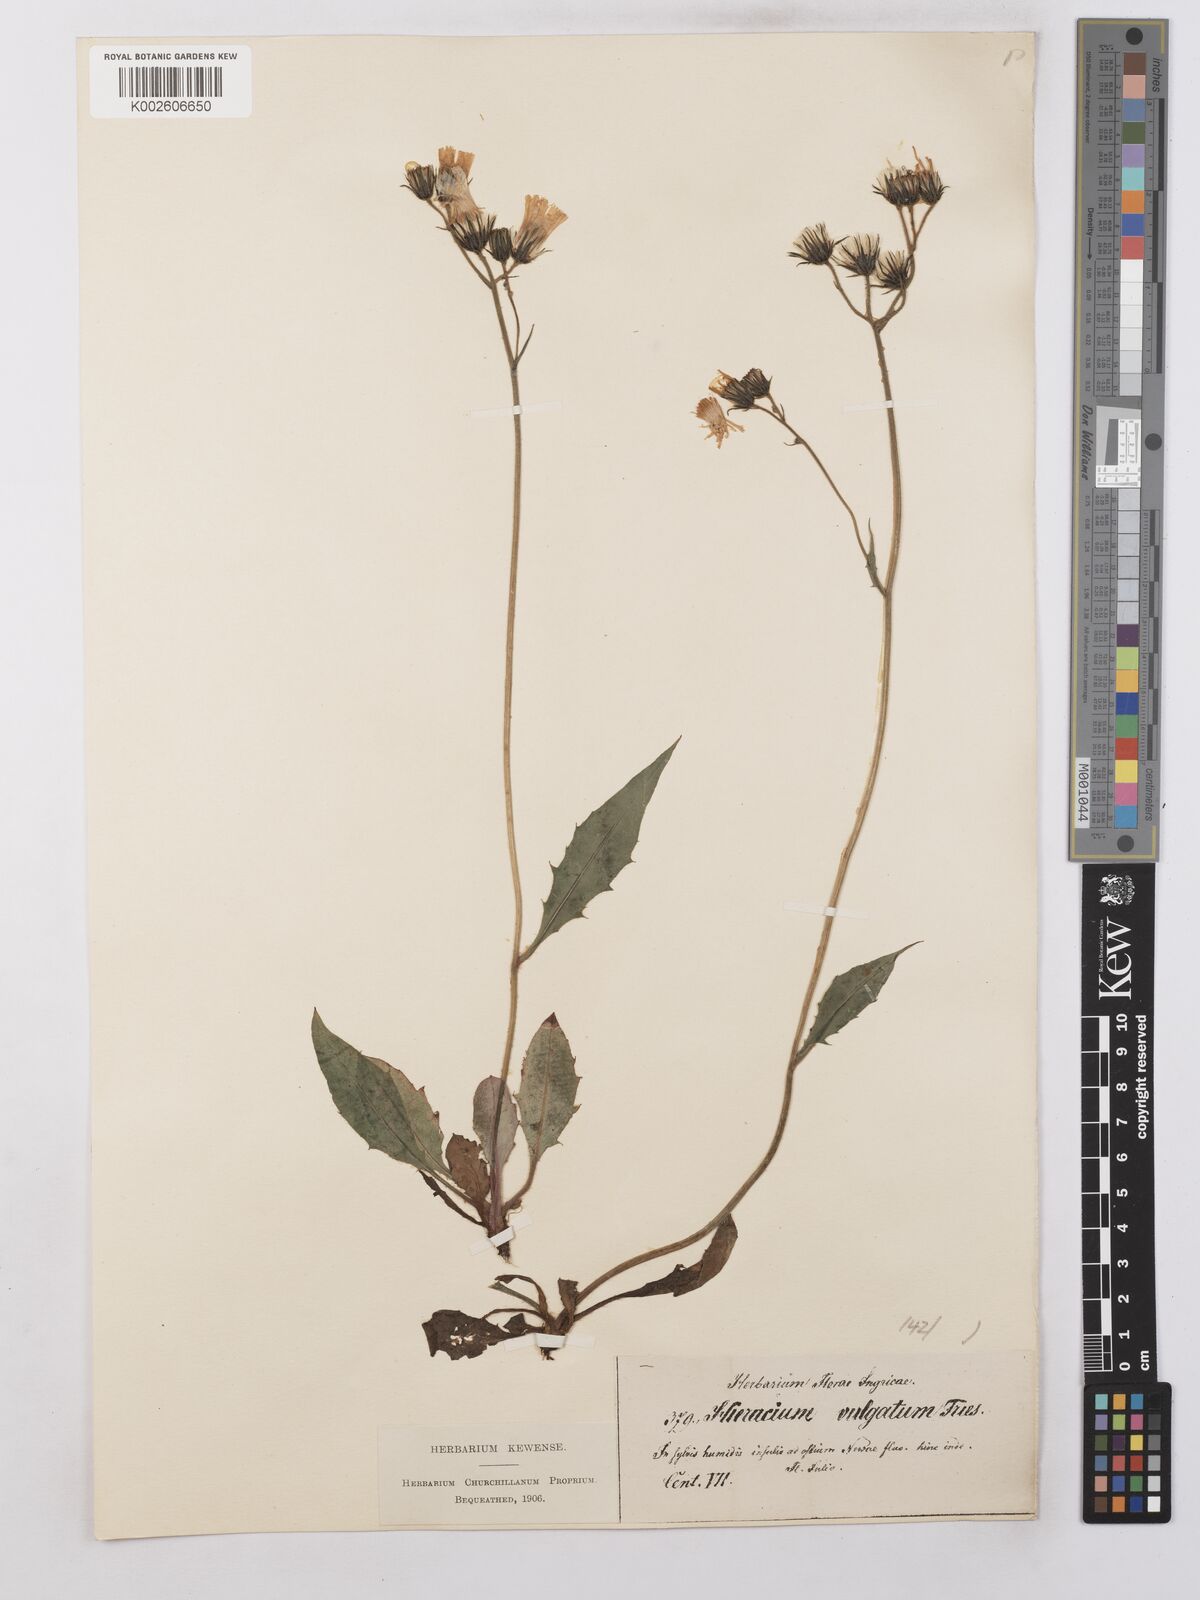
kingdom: Plantae
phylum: Tracheophyta
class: Magnoliopsida
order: Asterales
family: Asteraceae
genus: Hieracium
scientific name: Hieracium lachenalii
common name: Common hawkweed
